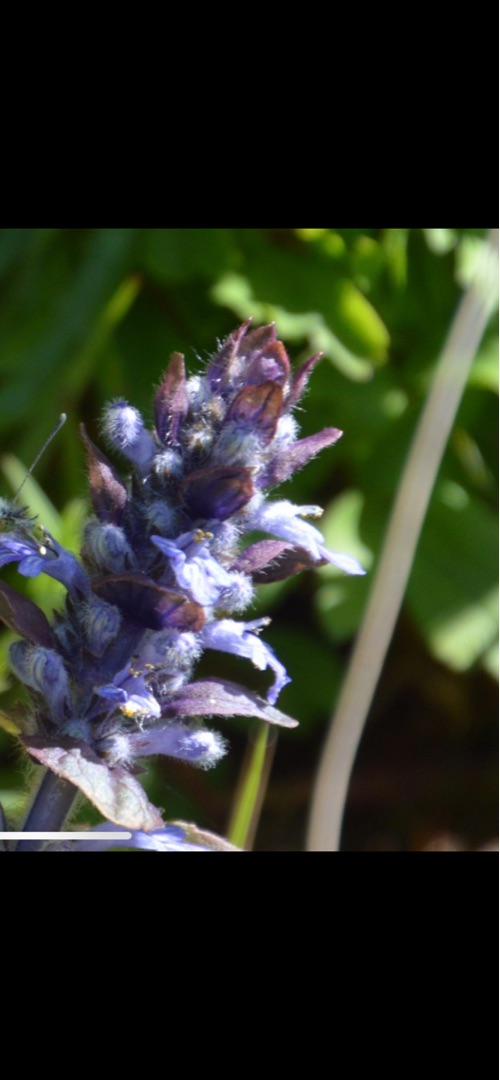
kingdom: Plantae
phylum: Tracheophyta
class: Magnoliopsida
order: Lamiales
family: Lamiaceae
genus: Ajuga
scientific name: Ajuga reptans
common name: Krybende læbeløs
